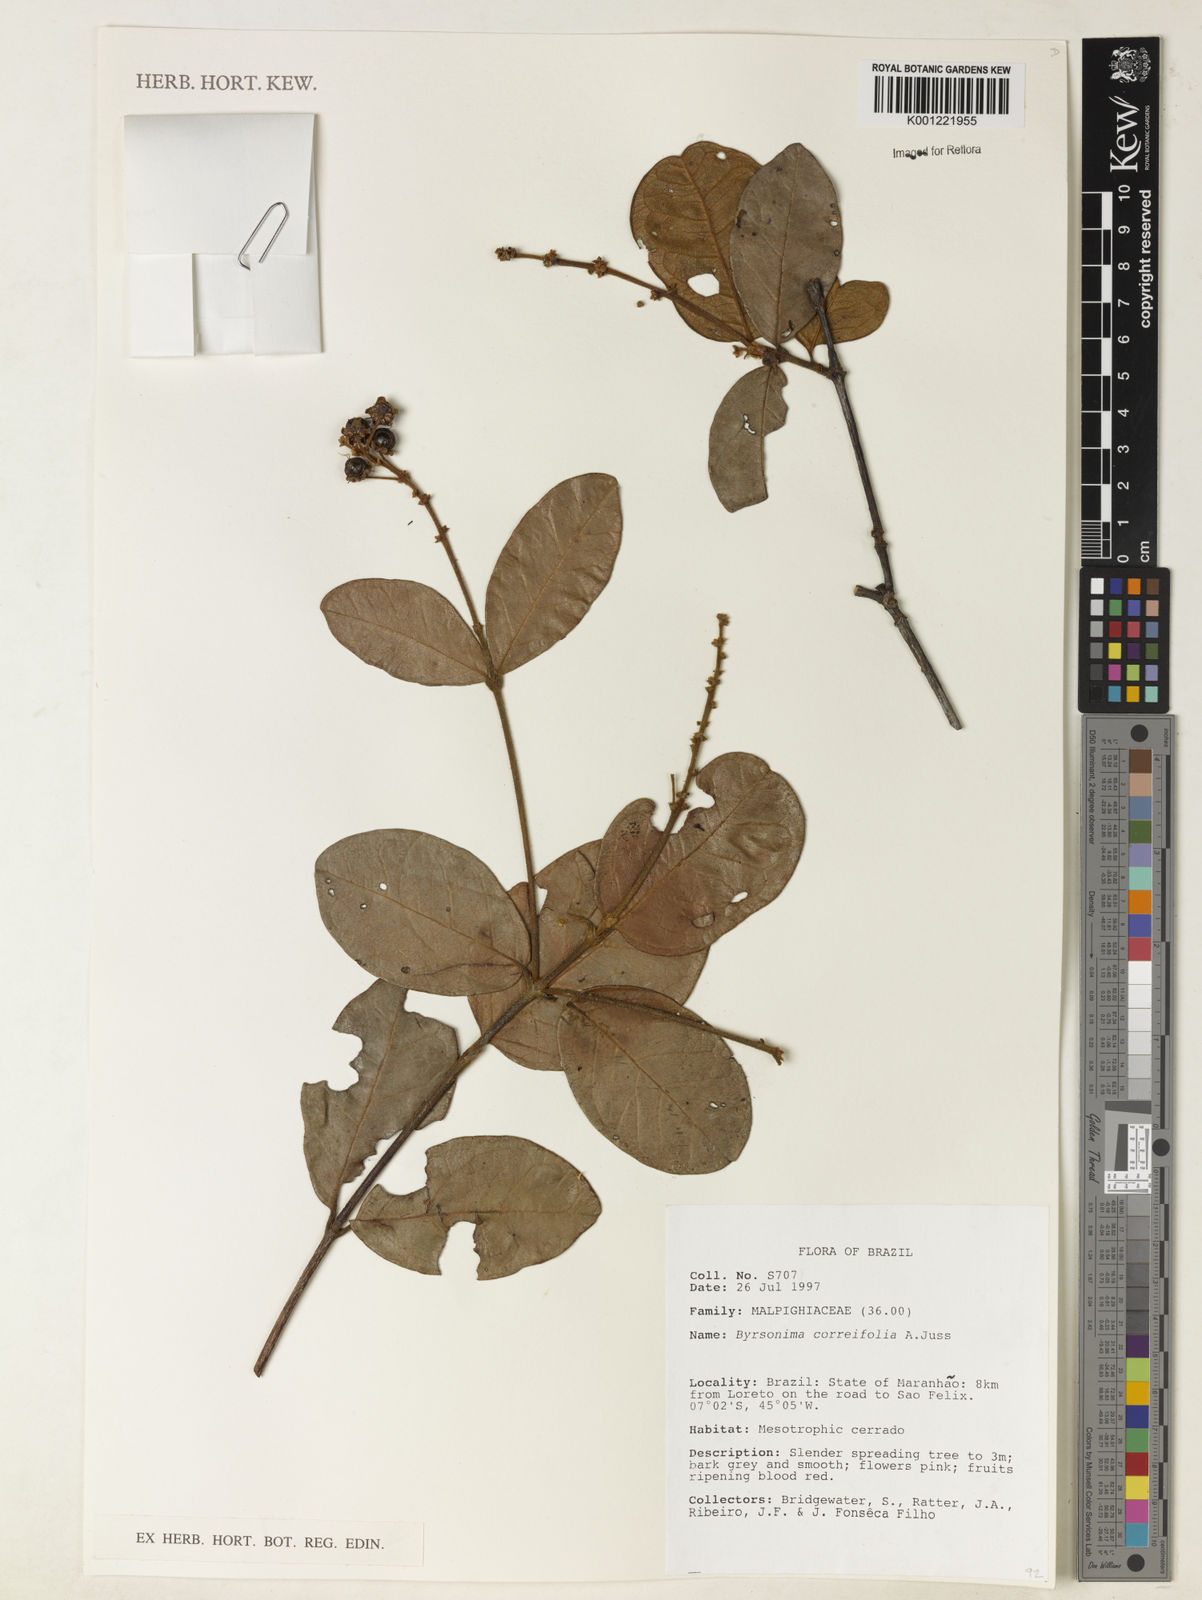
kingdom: Plantae
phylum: Tracheophyta
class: Magnoliopsida
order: Malpighiales
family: Malpighiaceae
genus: Byrsonima
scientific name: Byrsonima correifolia
